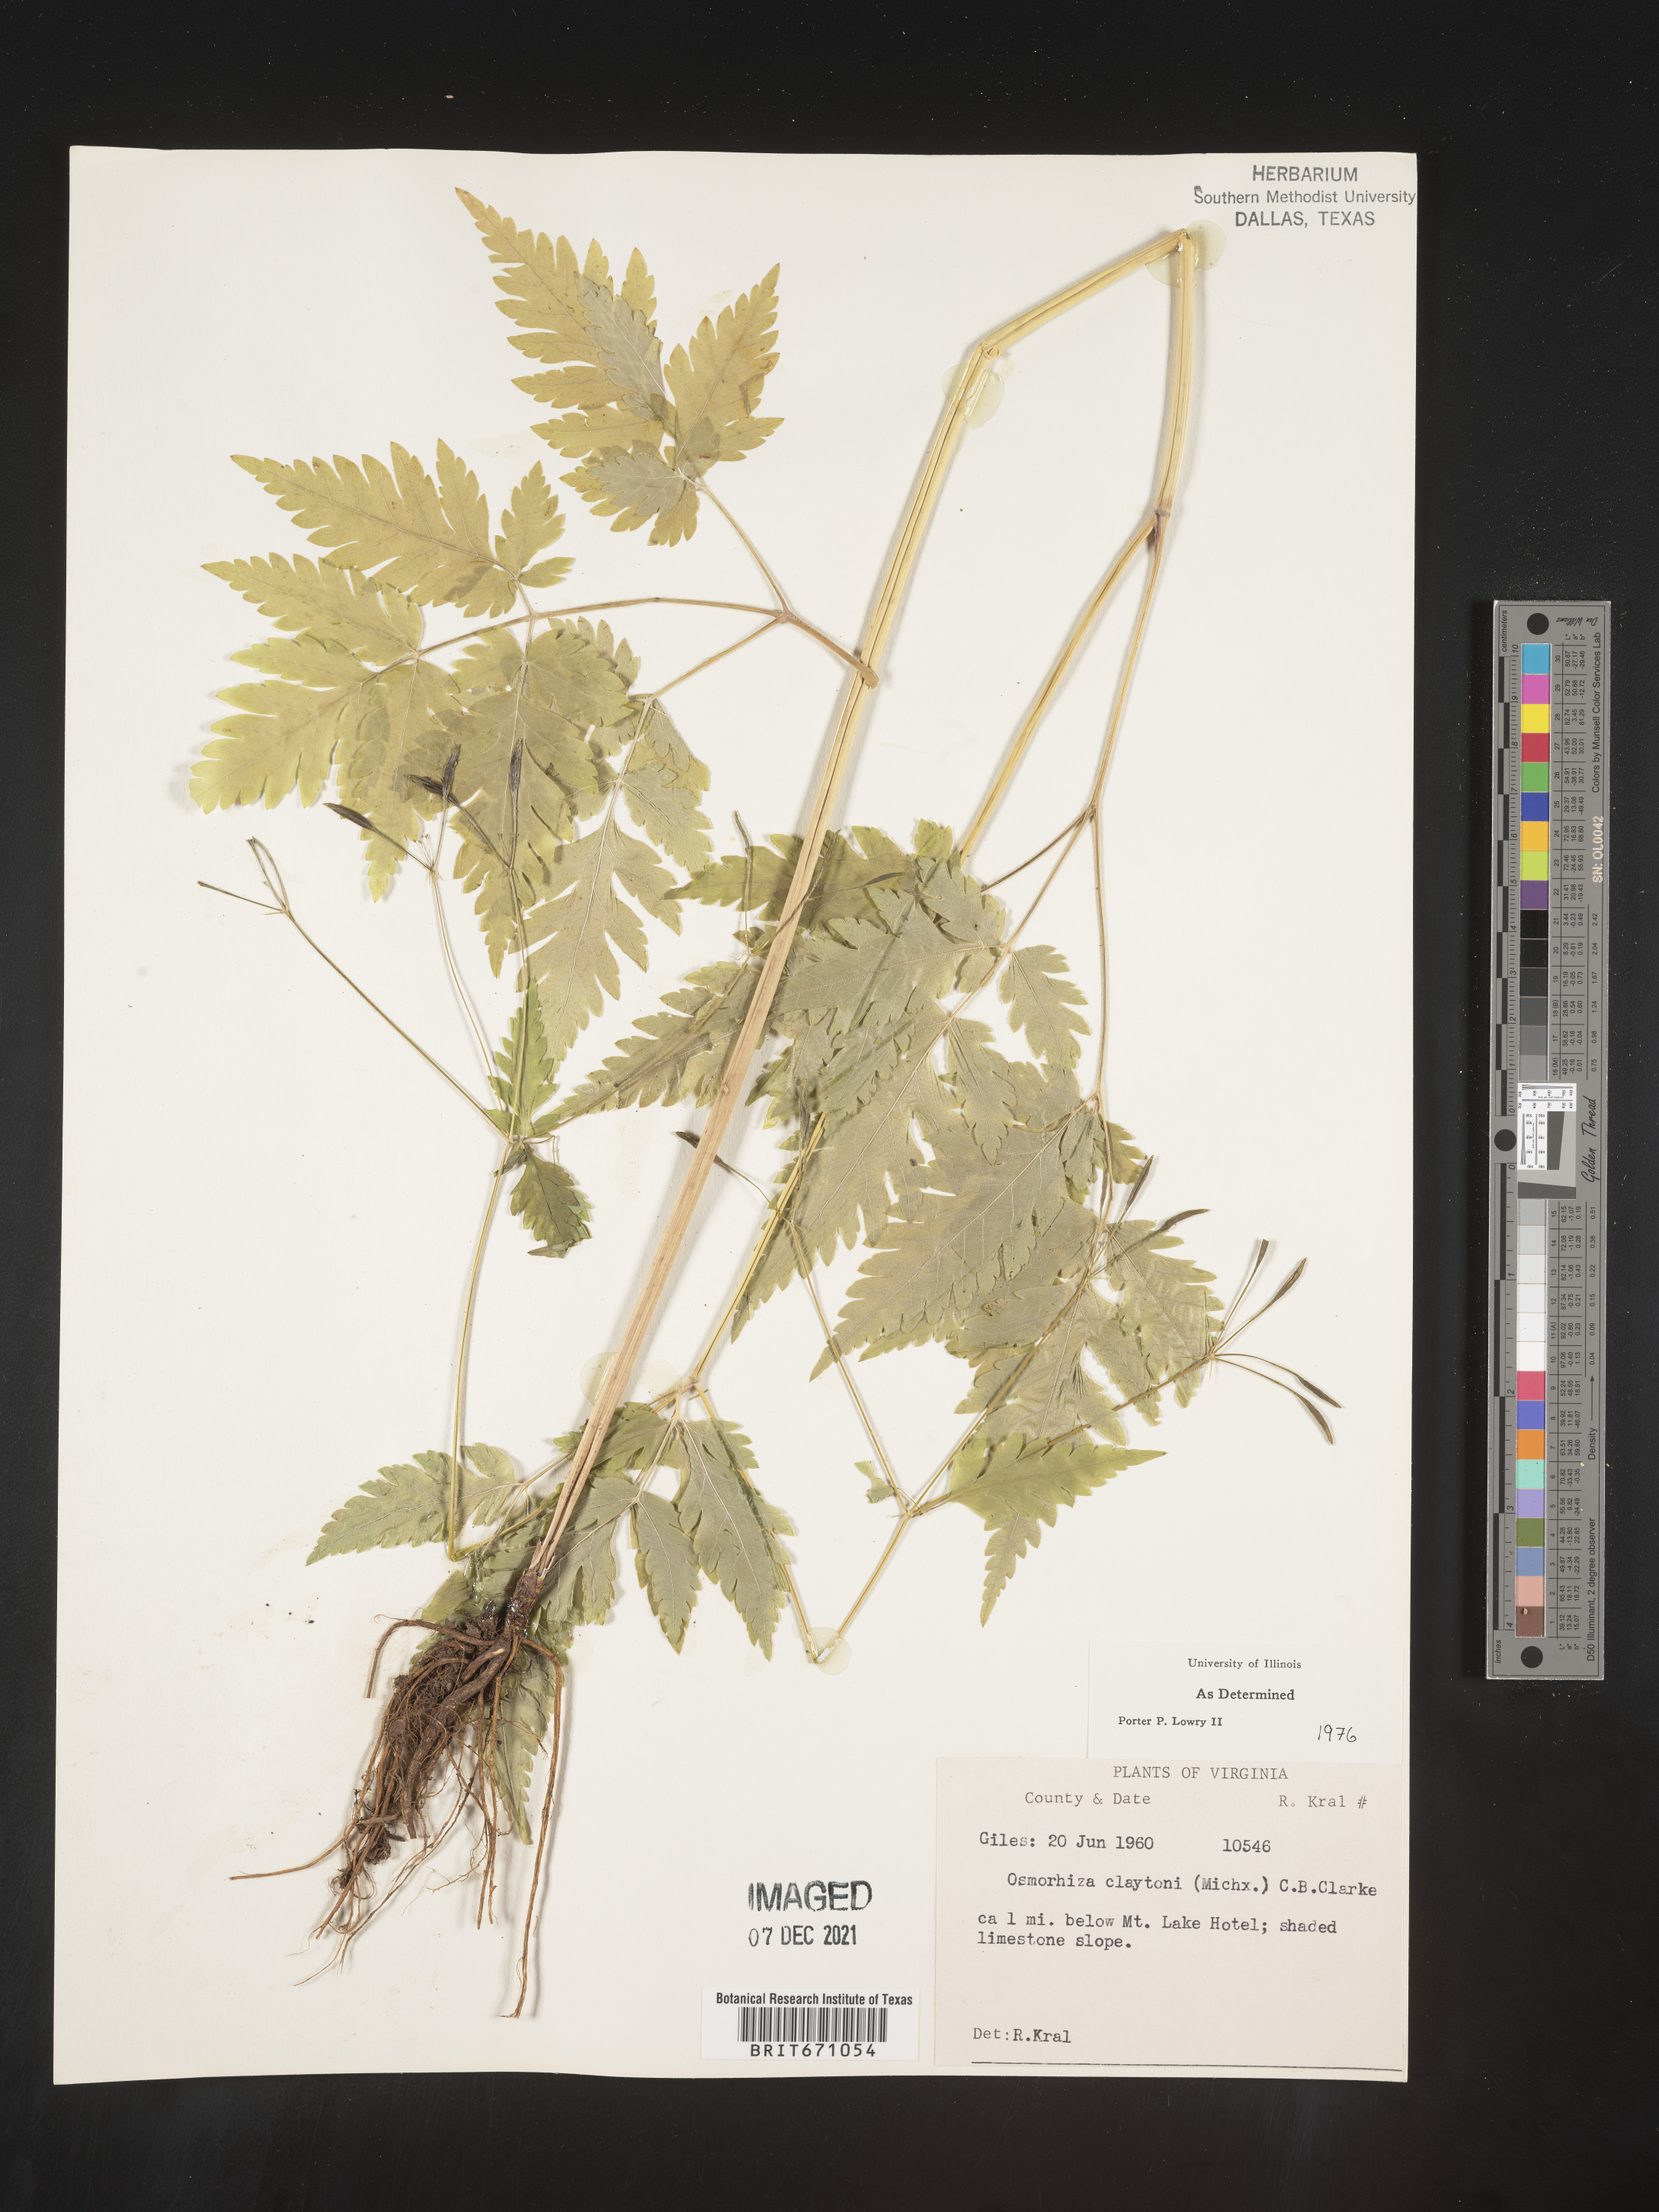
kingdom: Plantae
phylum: Tracheophyta
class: Magnoliopsida
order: Apiales
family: Apiaceae
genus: Osmorhiza
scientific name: Osmorhiza claytonii
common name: Hairy sweet cicely
